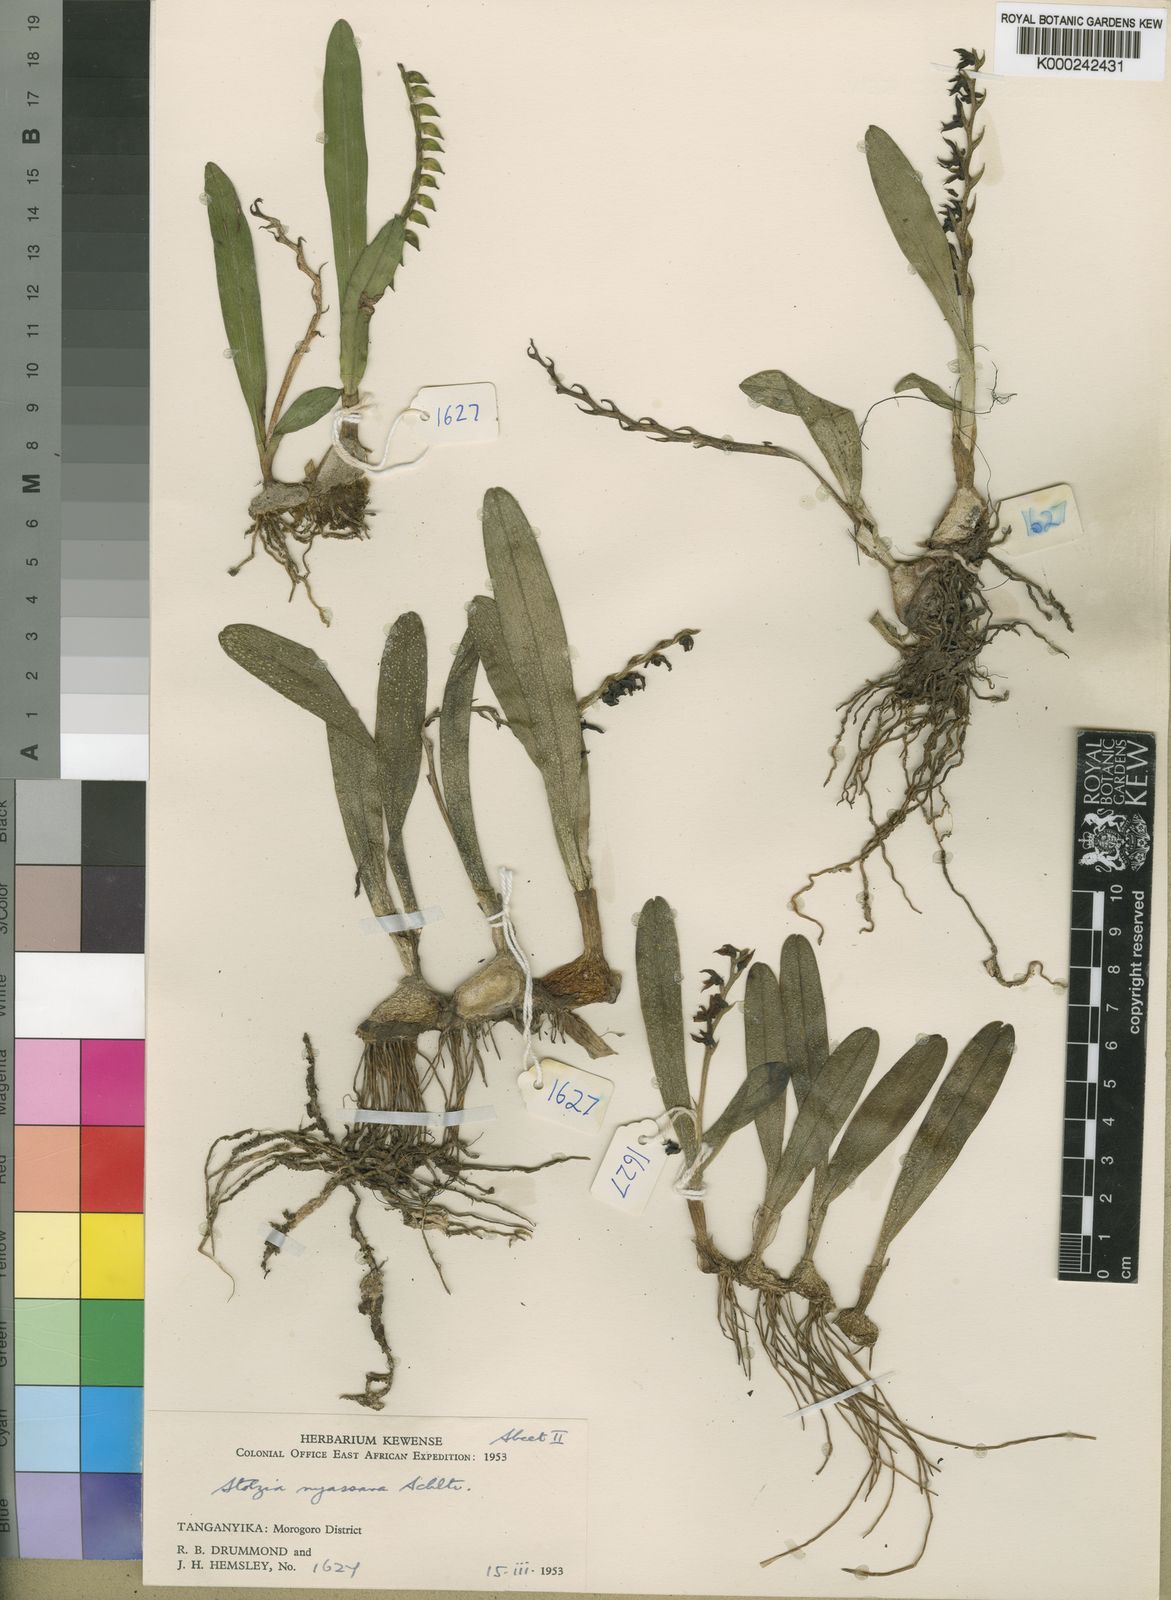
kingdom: Plantae
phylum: Tracheophyta
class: Liliopsida
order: Asparagales
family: Orchidaceae
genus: Porpax
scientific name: Porpax viridis
